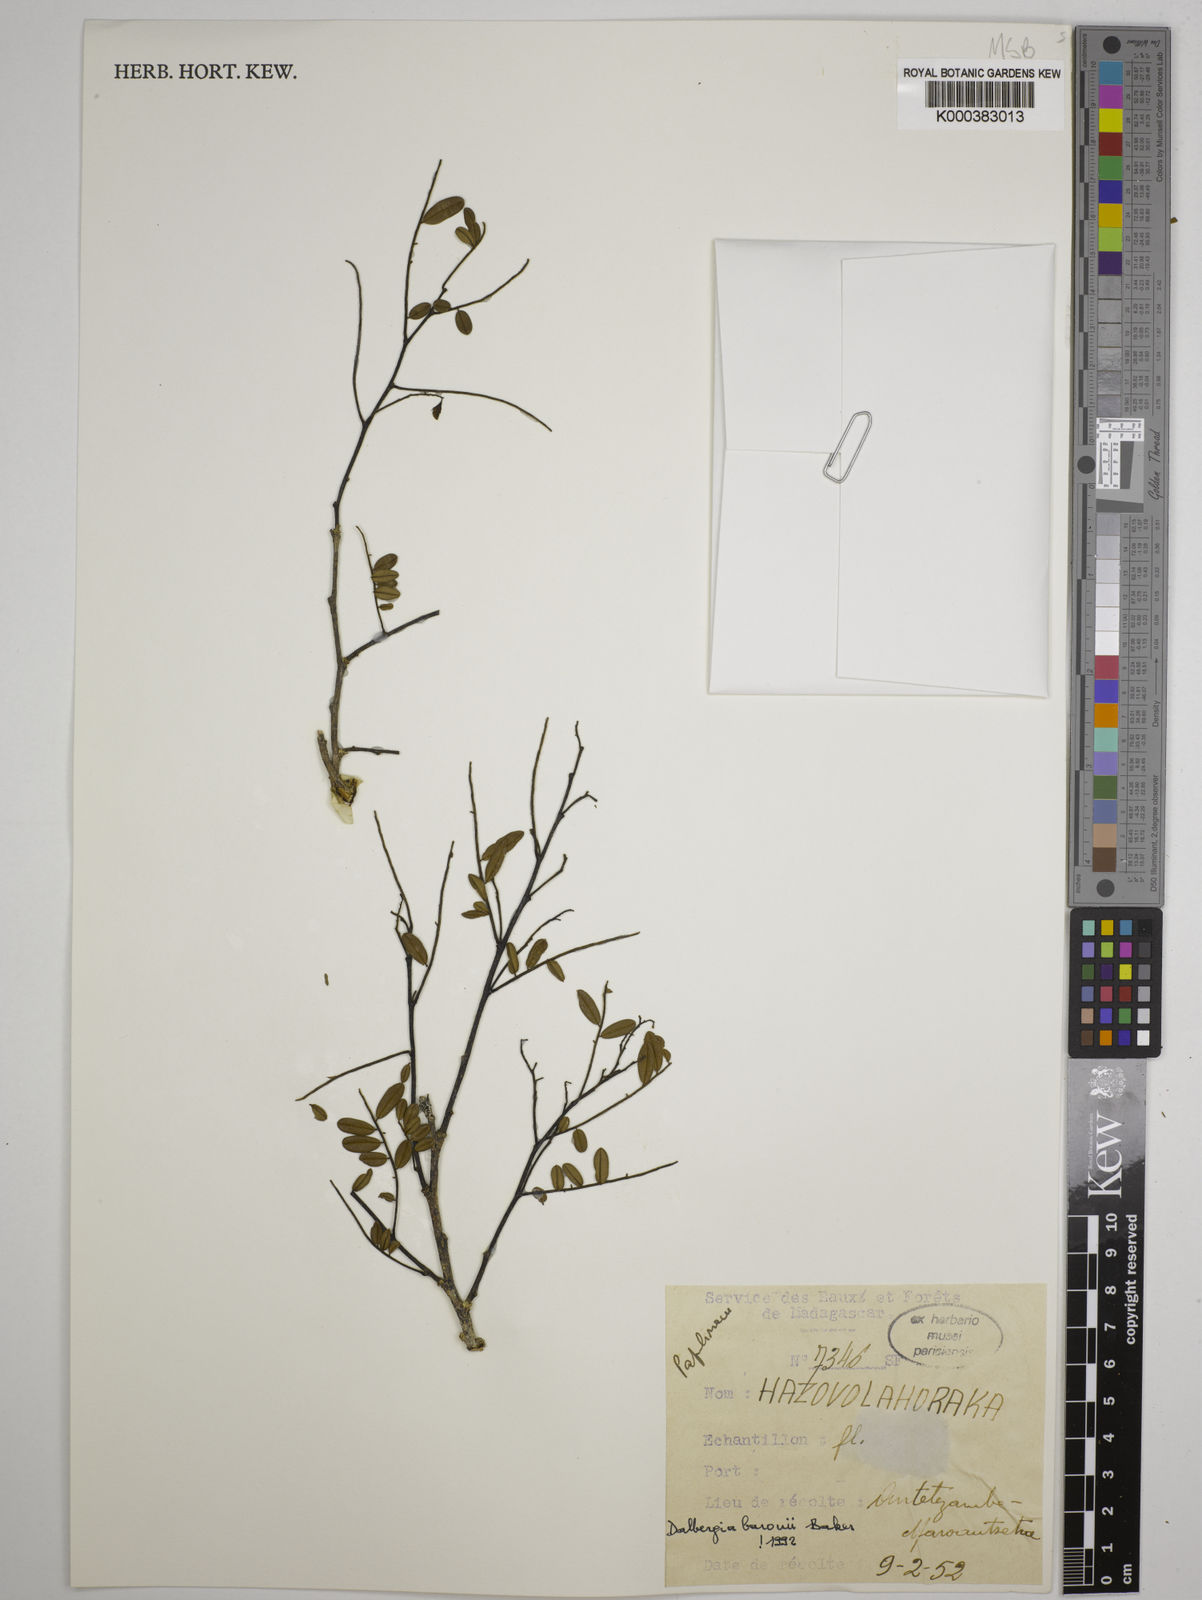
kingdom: Plantae
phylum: Tracheophyta
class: Magnoliopsida
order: Fabales
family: Fabaceae
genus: Dalbergia
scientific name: Dalbergia baronii
